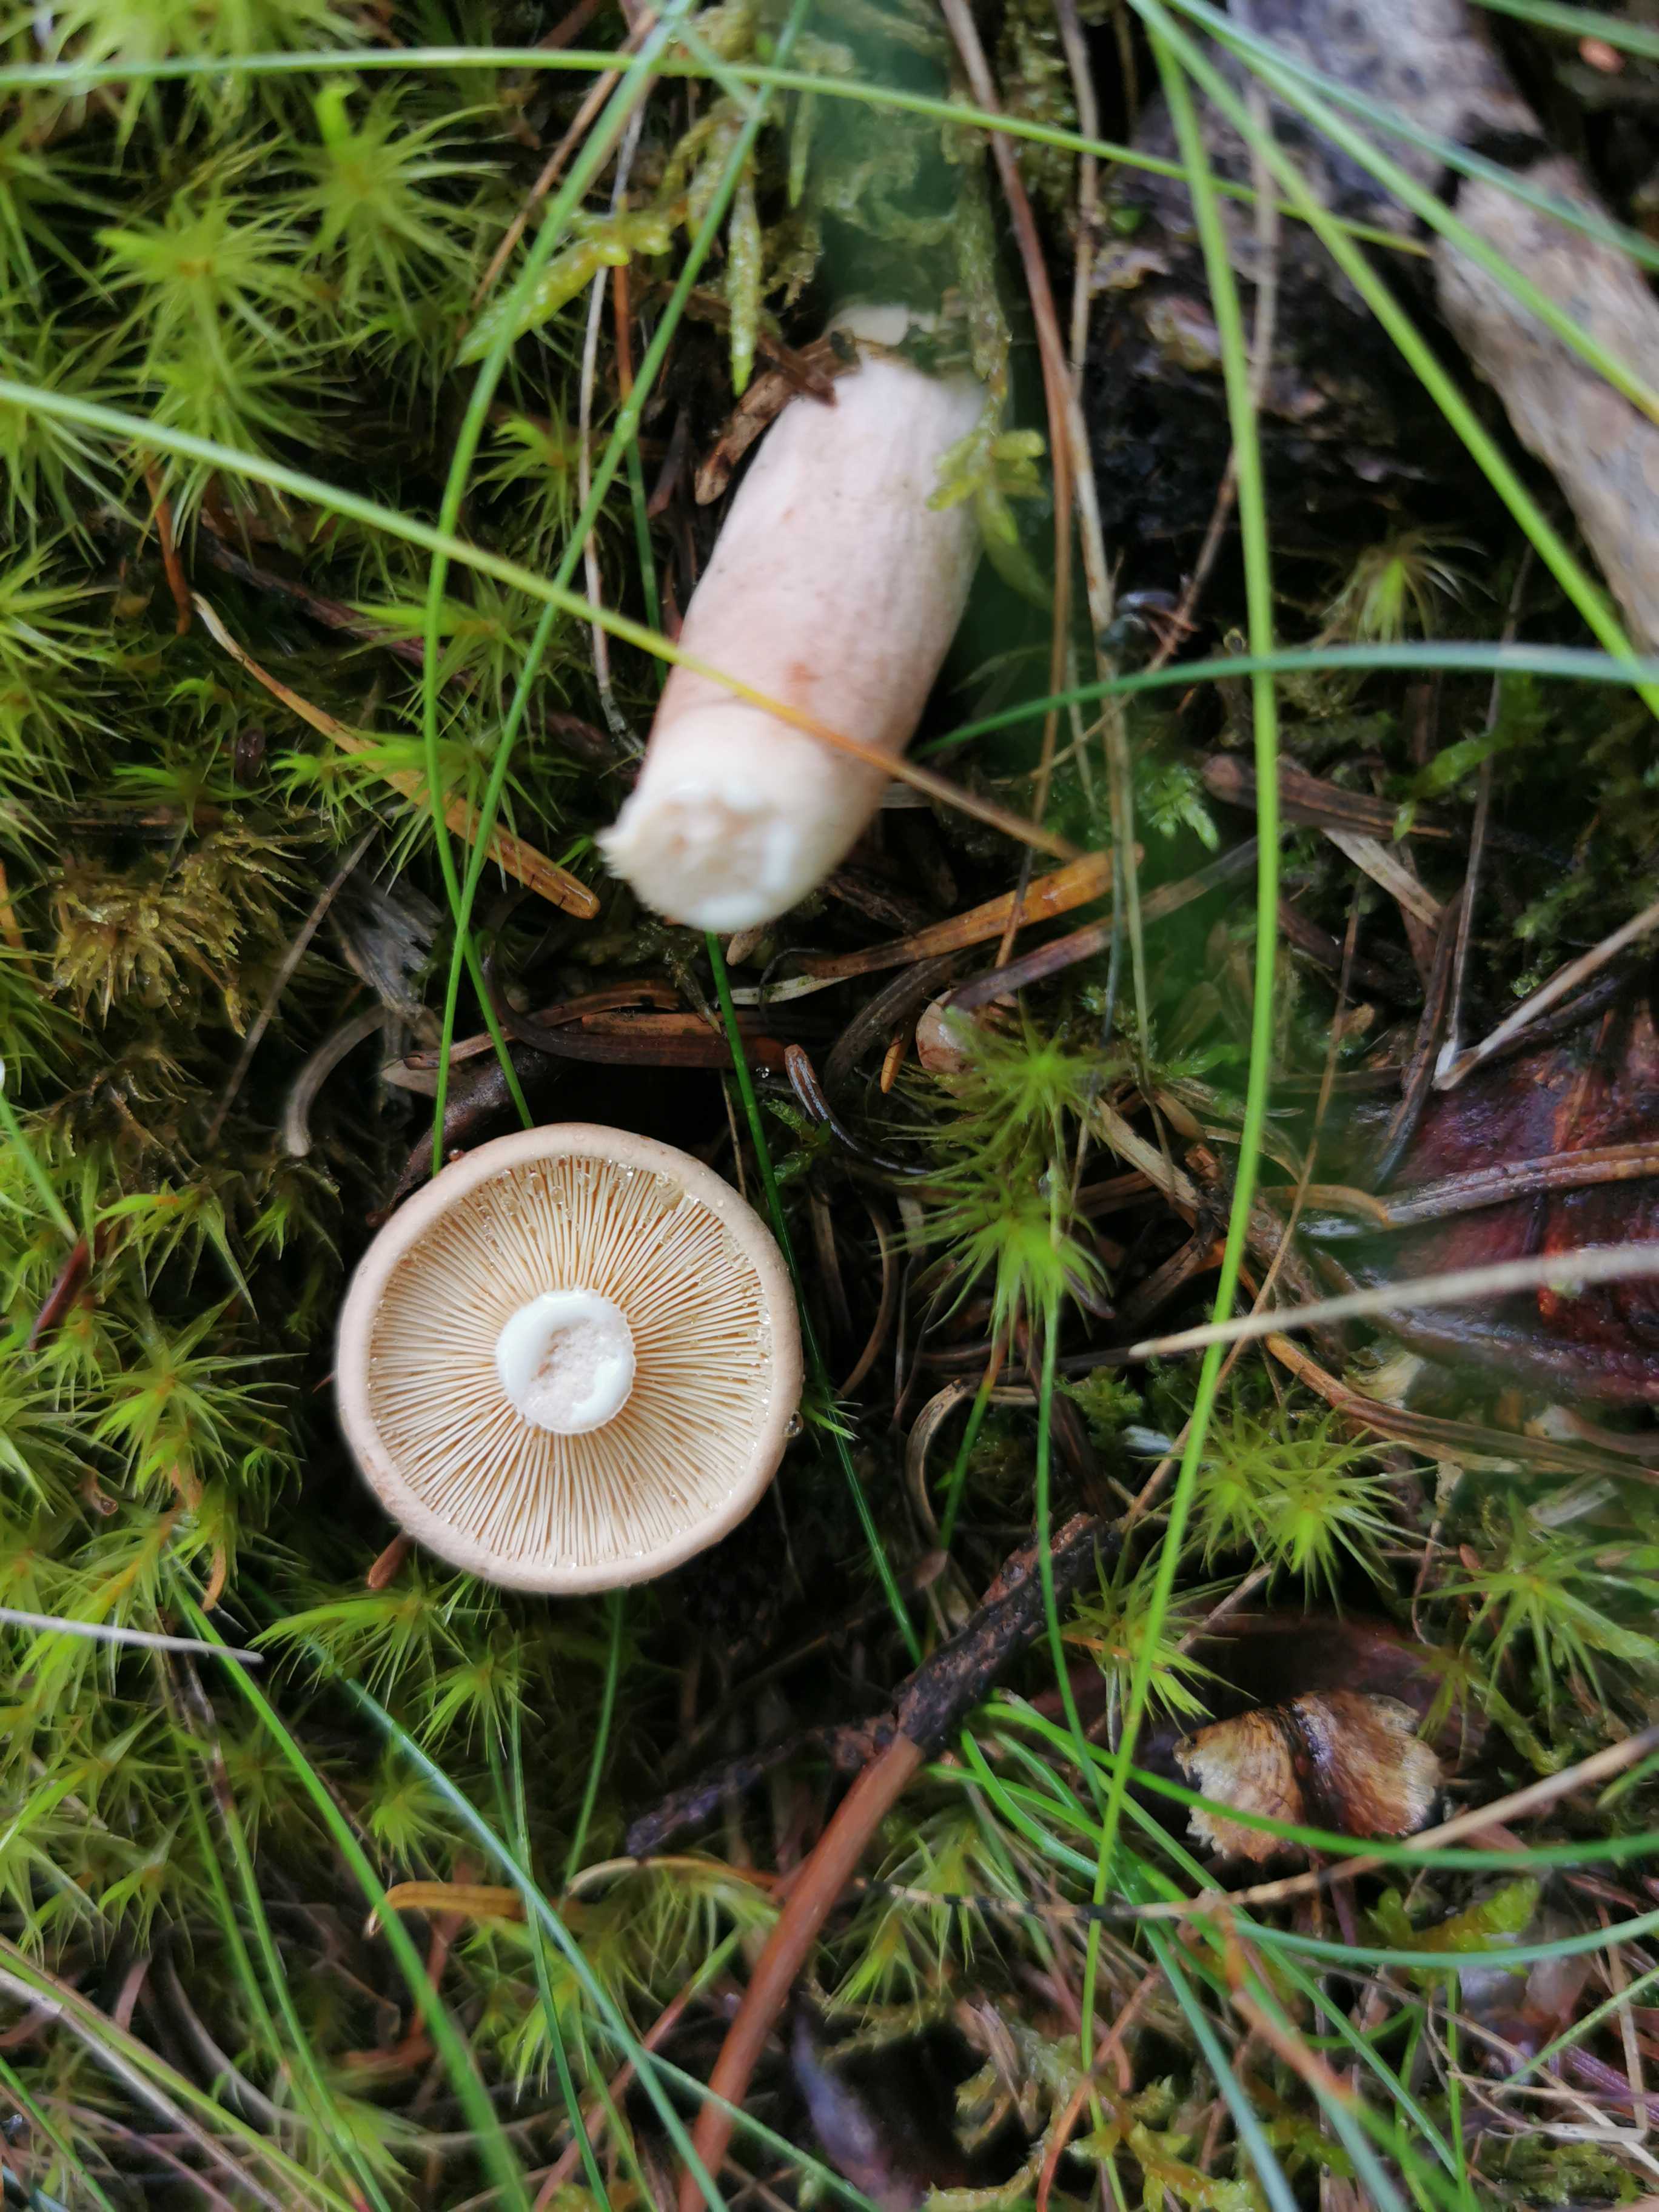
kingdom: Fungi
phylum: Basidiomycota
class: Agaricomycetes
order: Russulales
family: Russulaceae
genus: Lactarius
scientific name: Lactarius
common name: mælkehat
